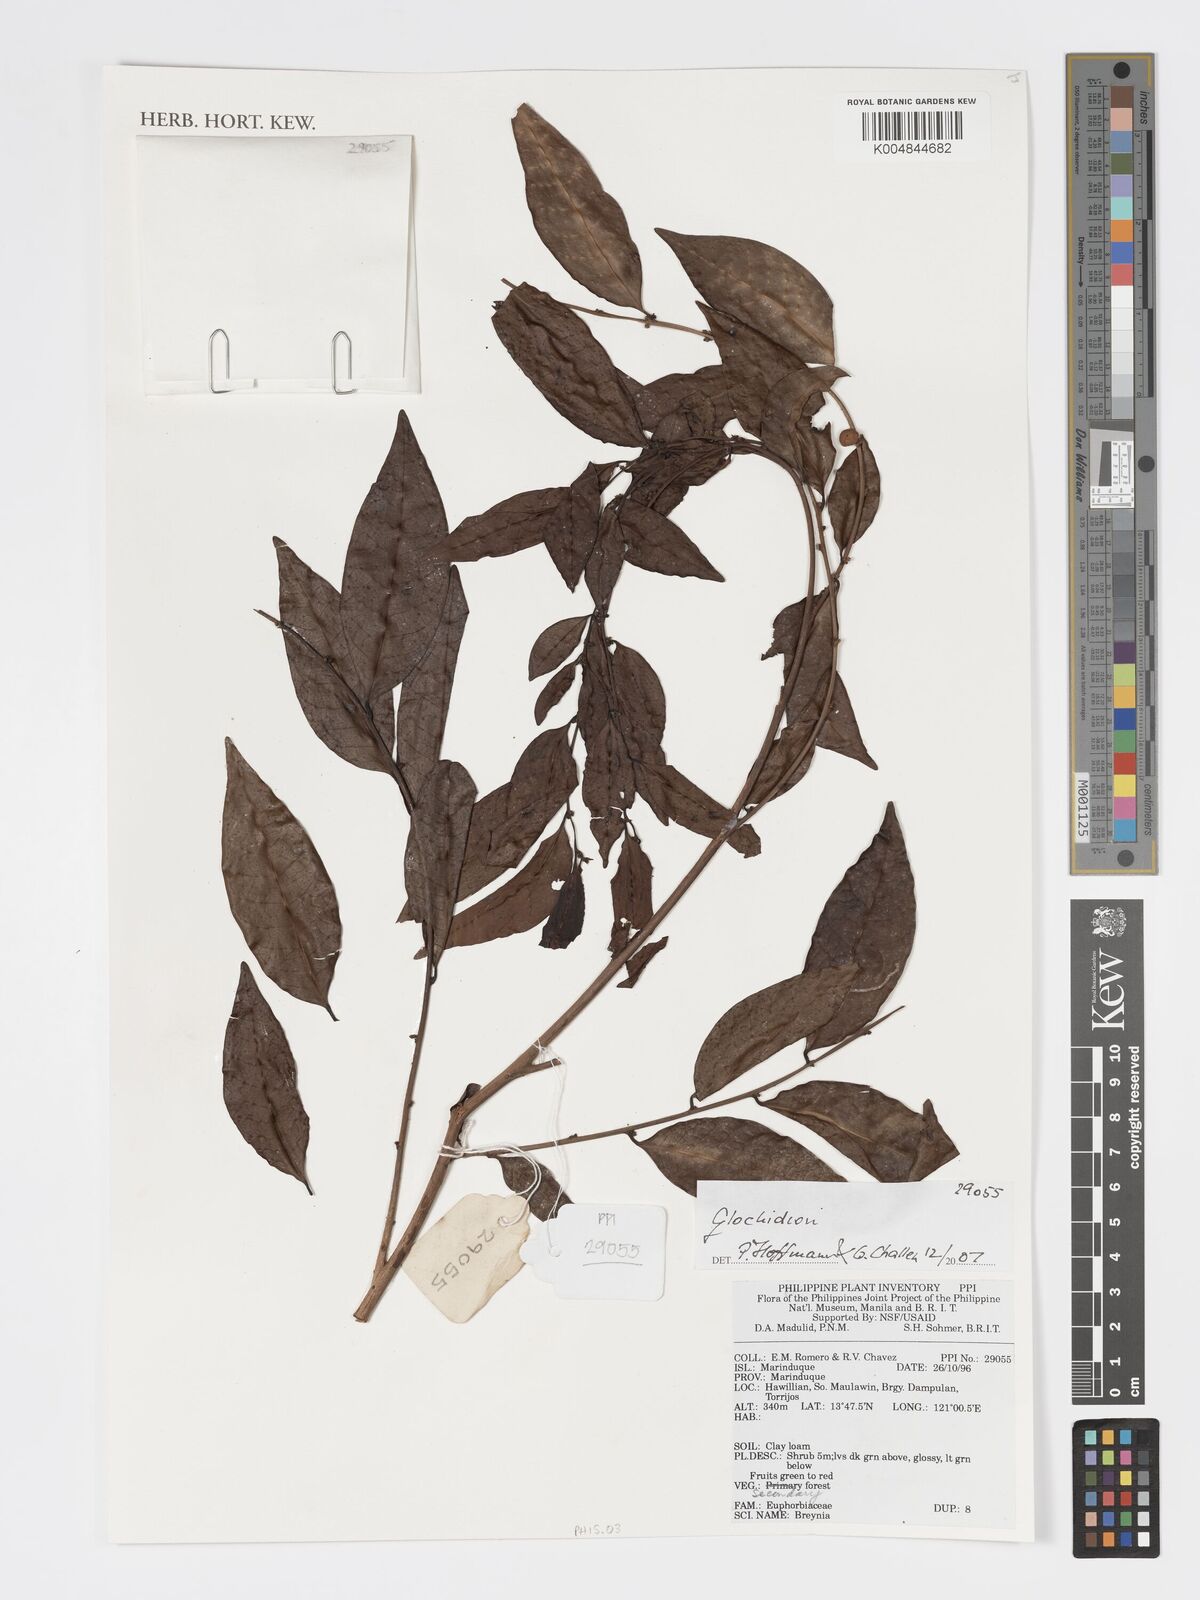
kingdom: Plantae
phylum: Tracheophyta
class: Magnoliopsida
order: Malpighiales
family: Phyllanthaceae
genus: Glochidion
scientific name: Glochidion
